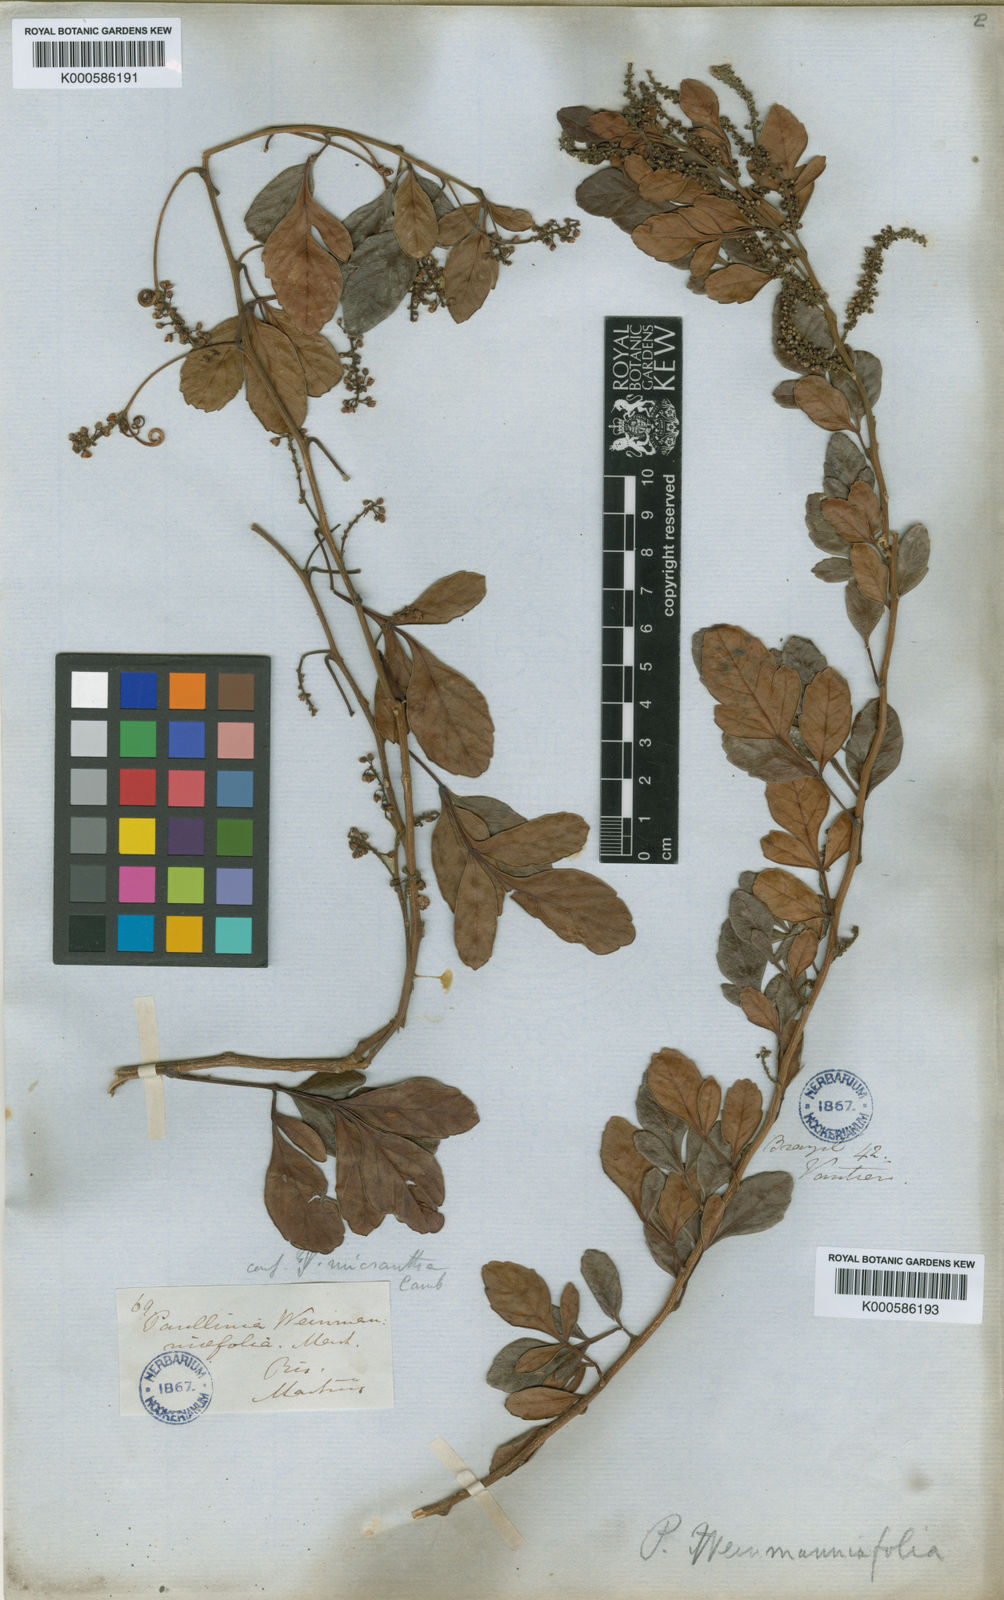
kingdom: Plantae
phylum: Tracheophyta
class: Magnoliopsida
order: Sapindales
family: Sapindaceae
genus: Paullinia
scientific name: Paullinia
